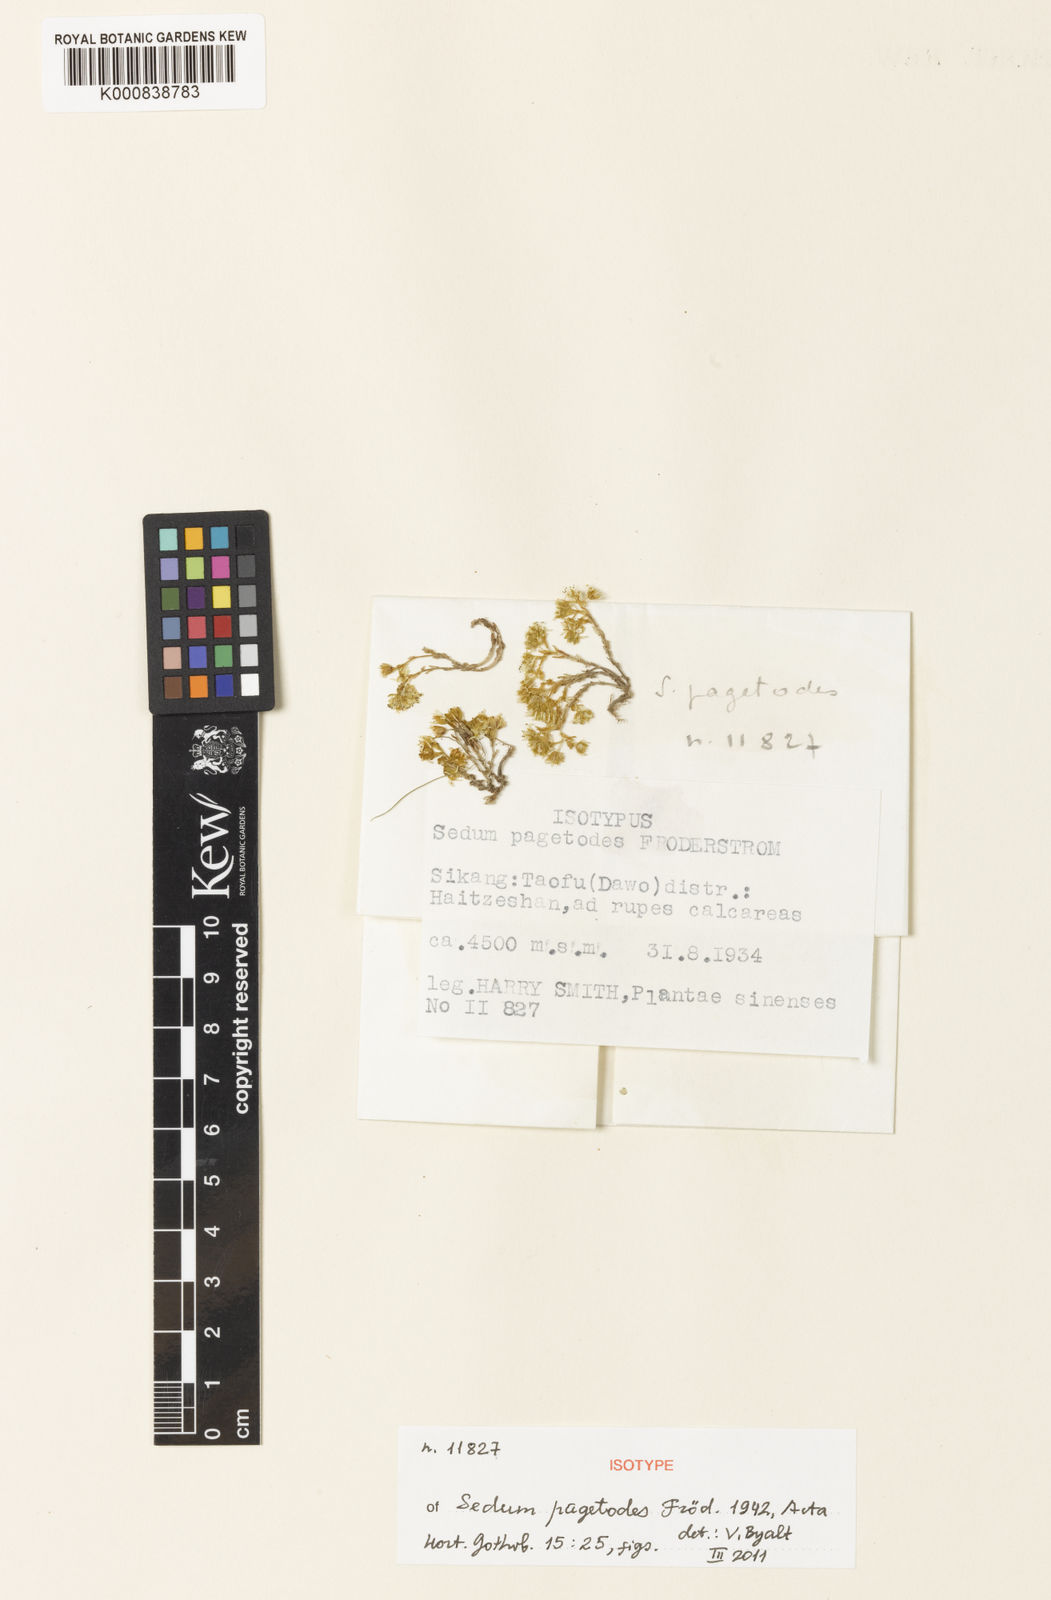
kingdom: Plantae
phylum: Tracheophyta
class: Magnoliopsida
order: Saxifragales
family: Crassulaceae
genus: Sedum
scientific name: Sedum
